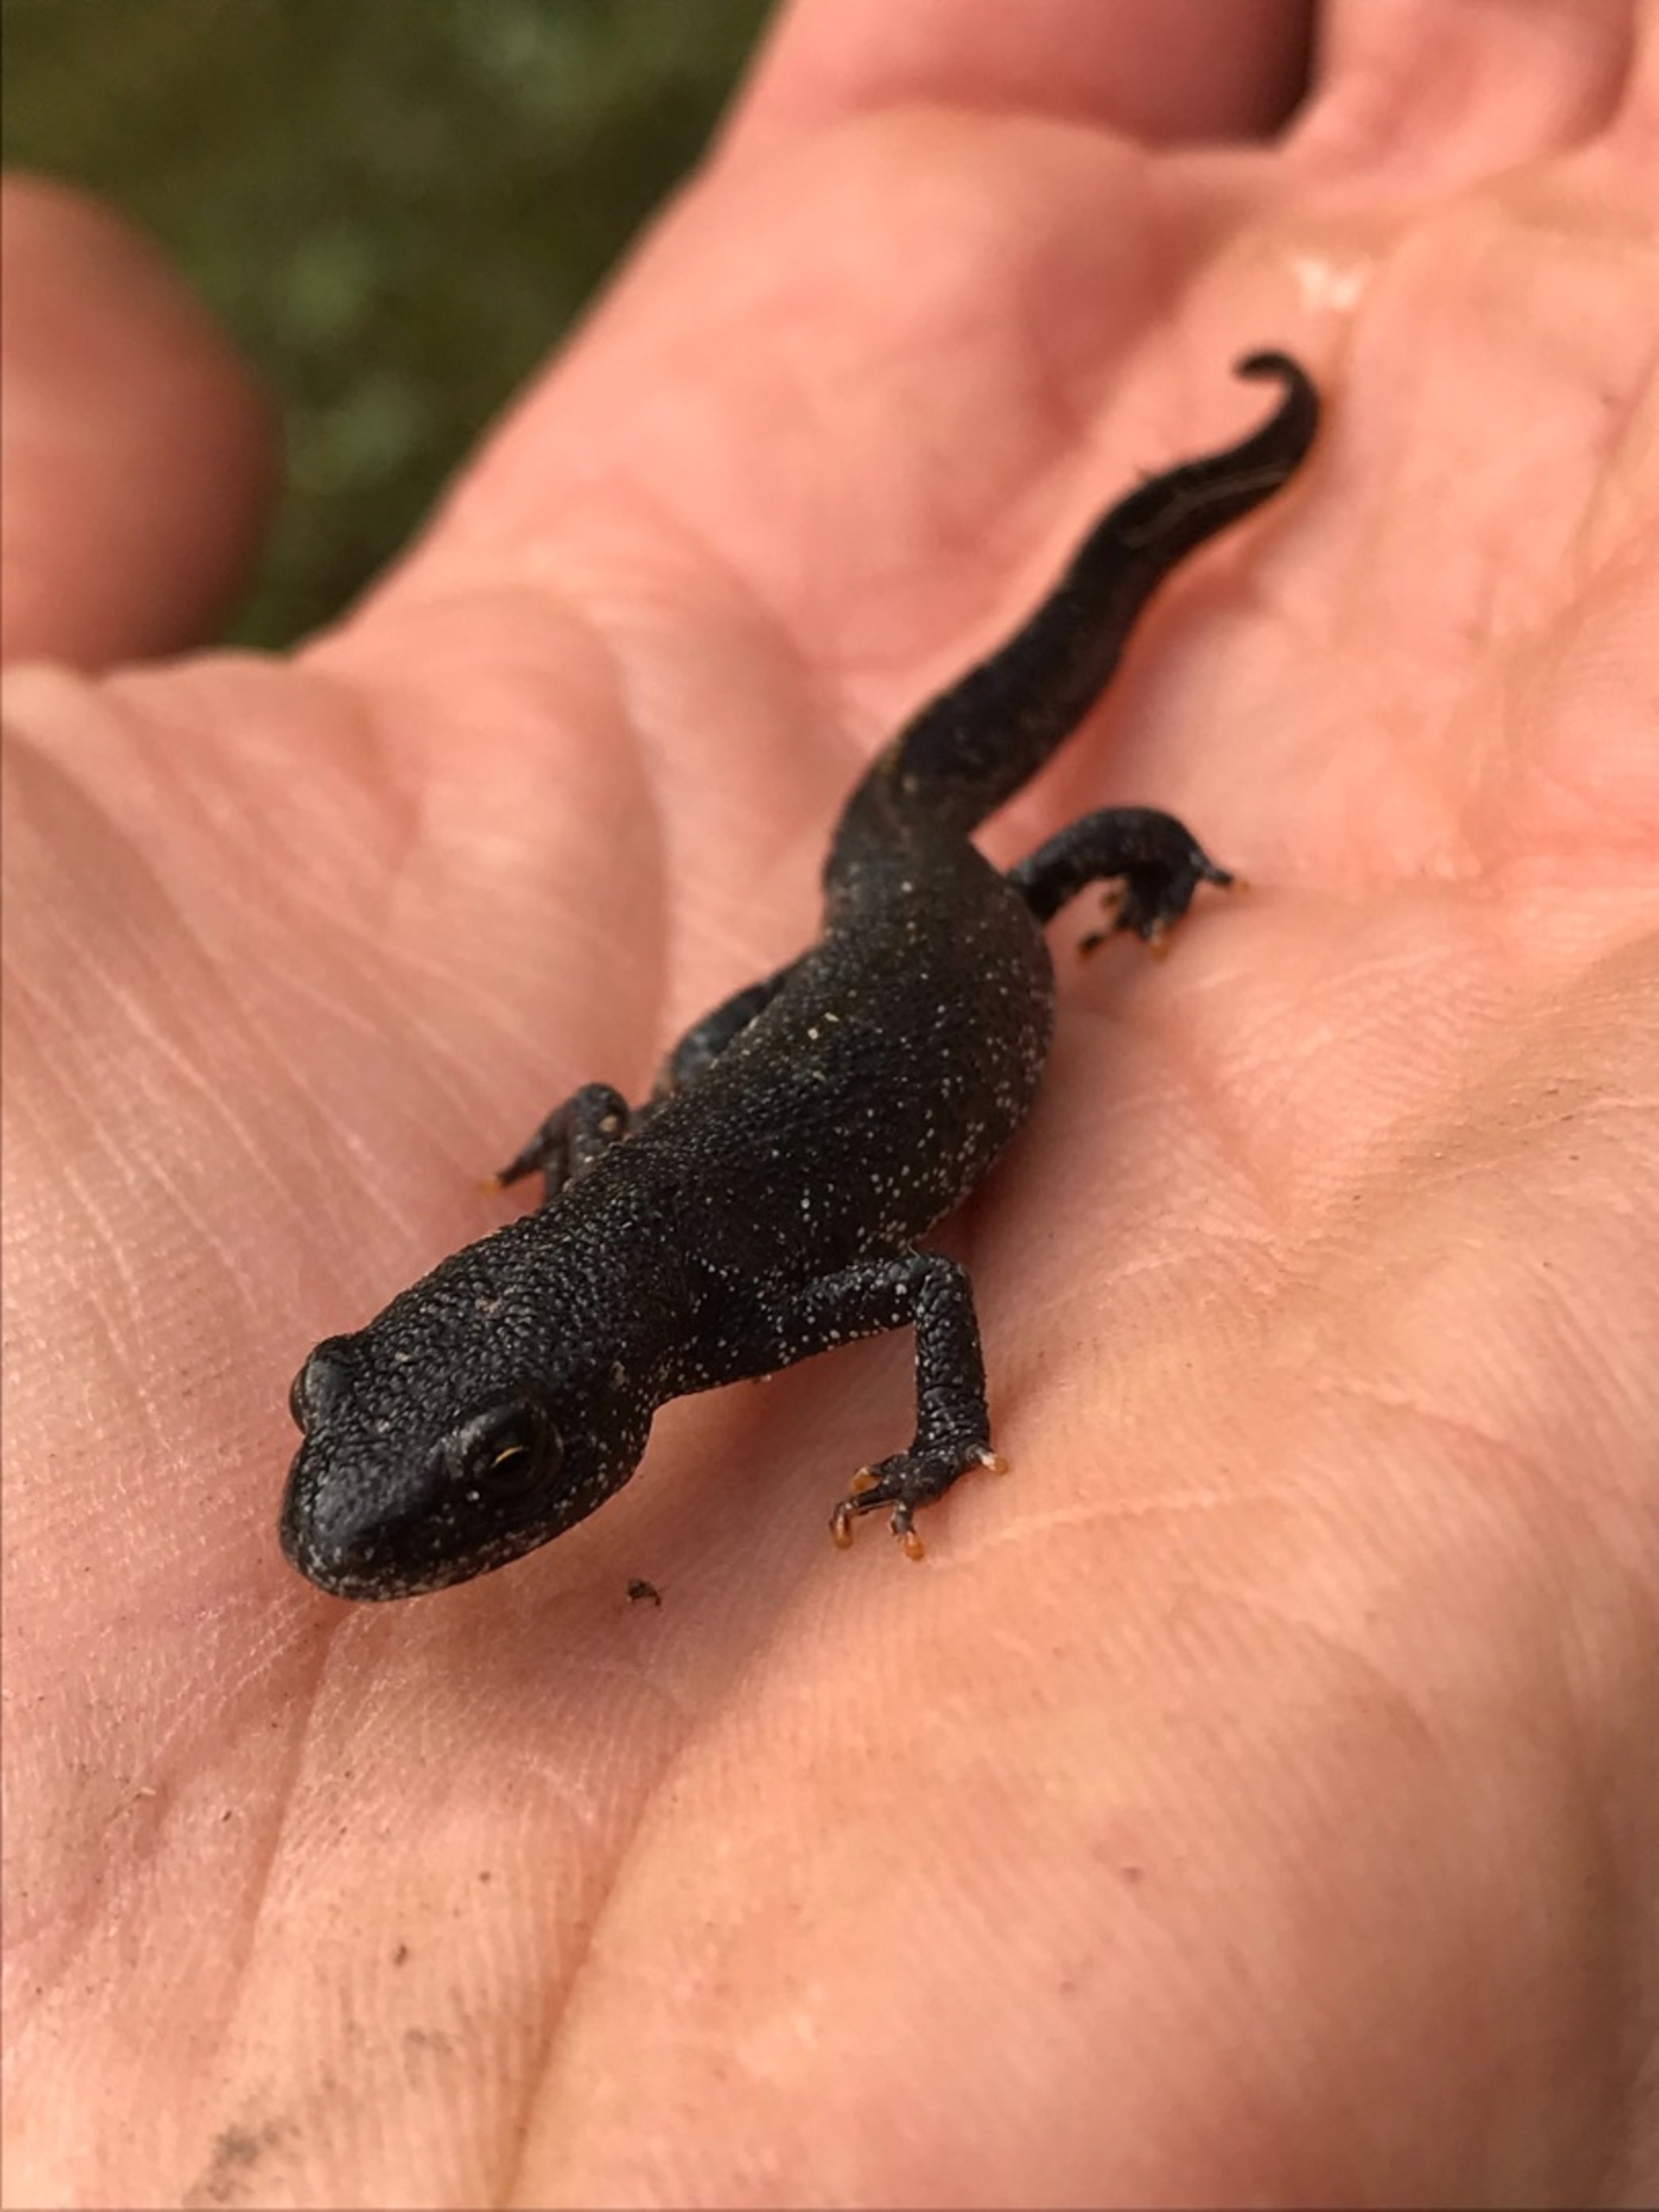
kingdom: Animalia
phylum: Chordata
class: Amphibia
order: Caudata
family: Salamandridae
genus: Triturus
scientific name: Triturus cristatus
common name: Stor vandsalamander
